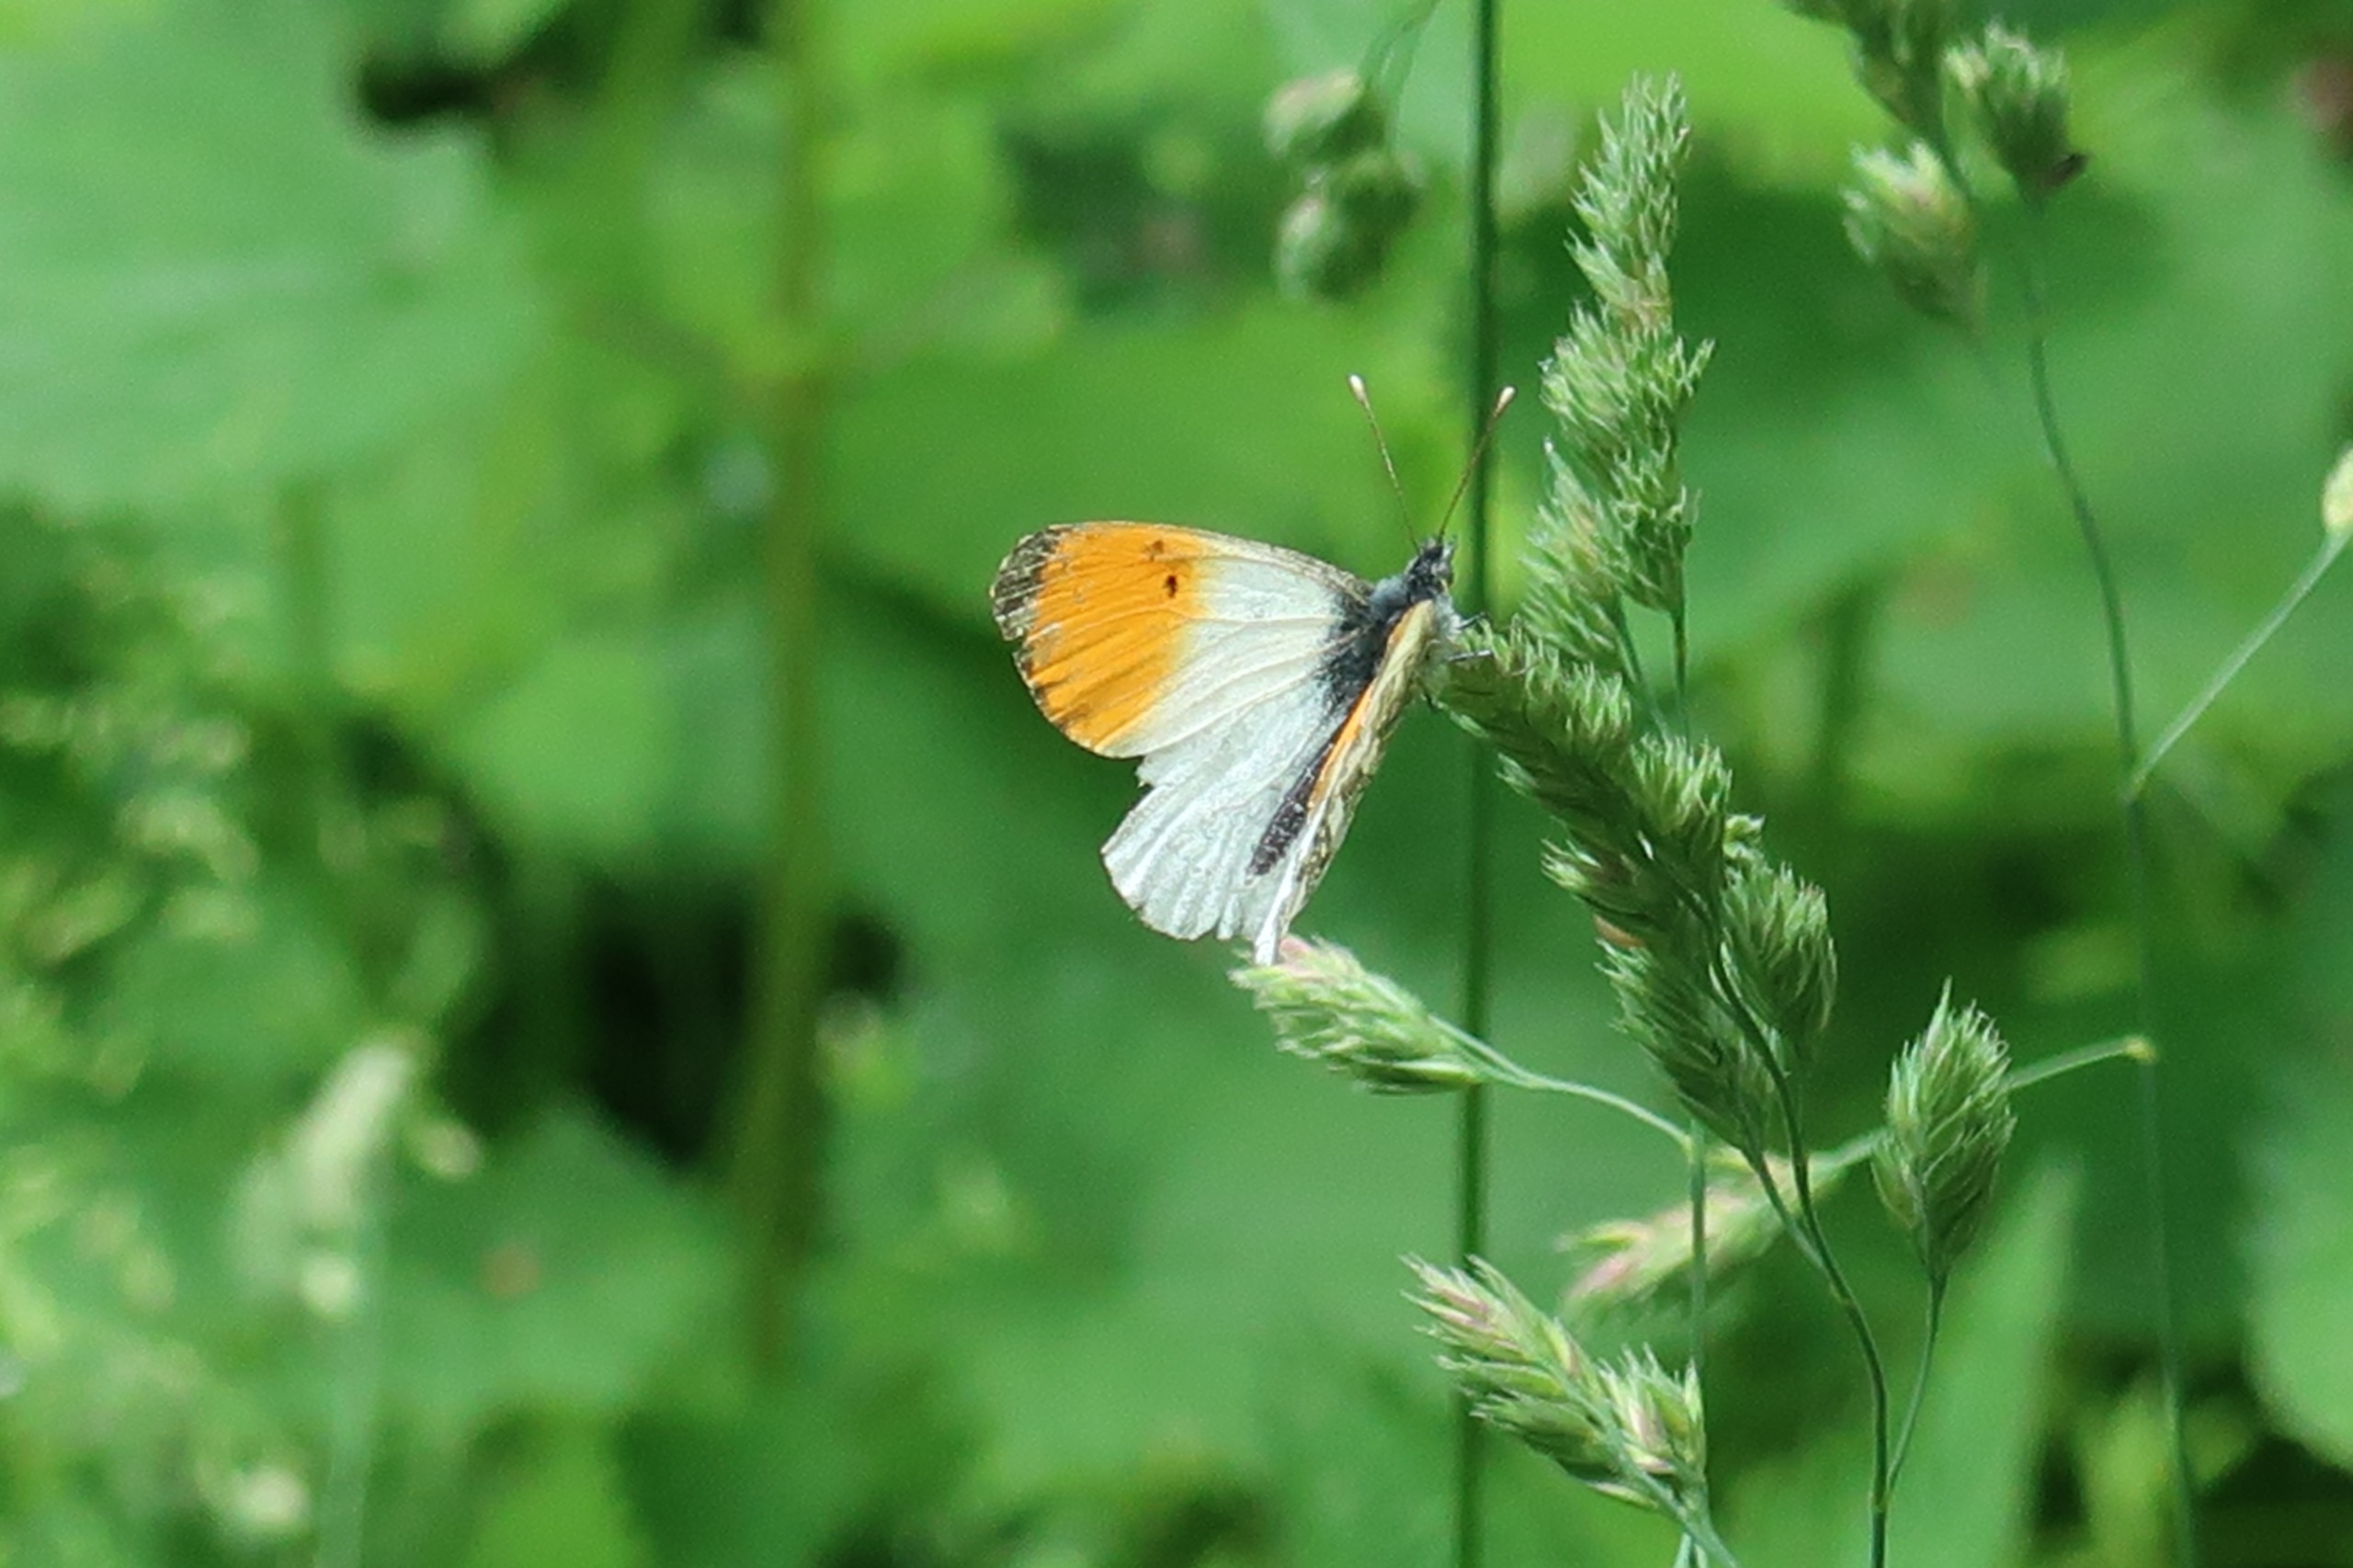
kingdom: Animalia
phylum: Arthropoda
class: Insecta
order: Lepidoptera
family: Pieridae
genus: Anthocharis
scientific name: Anthocharis cardamines
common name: Aurora
